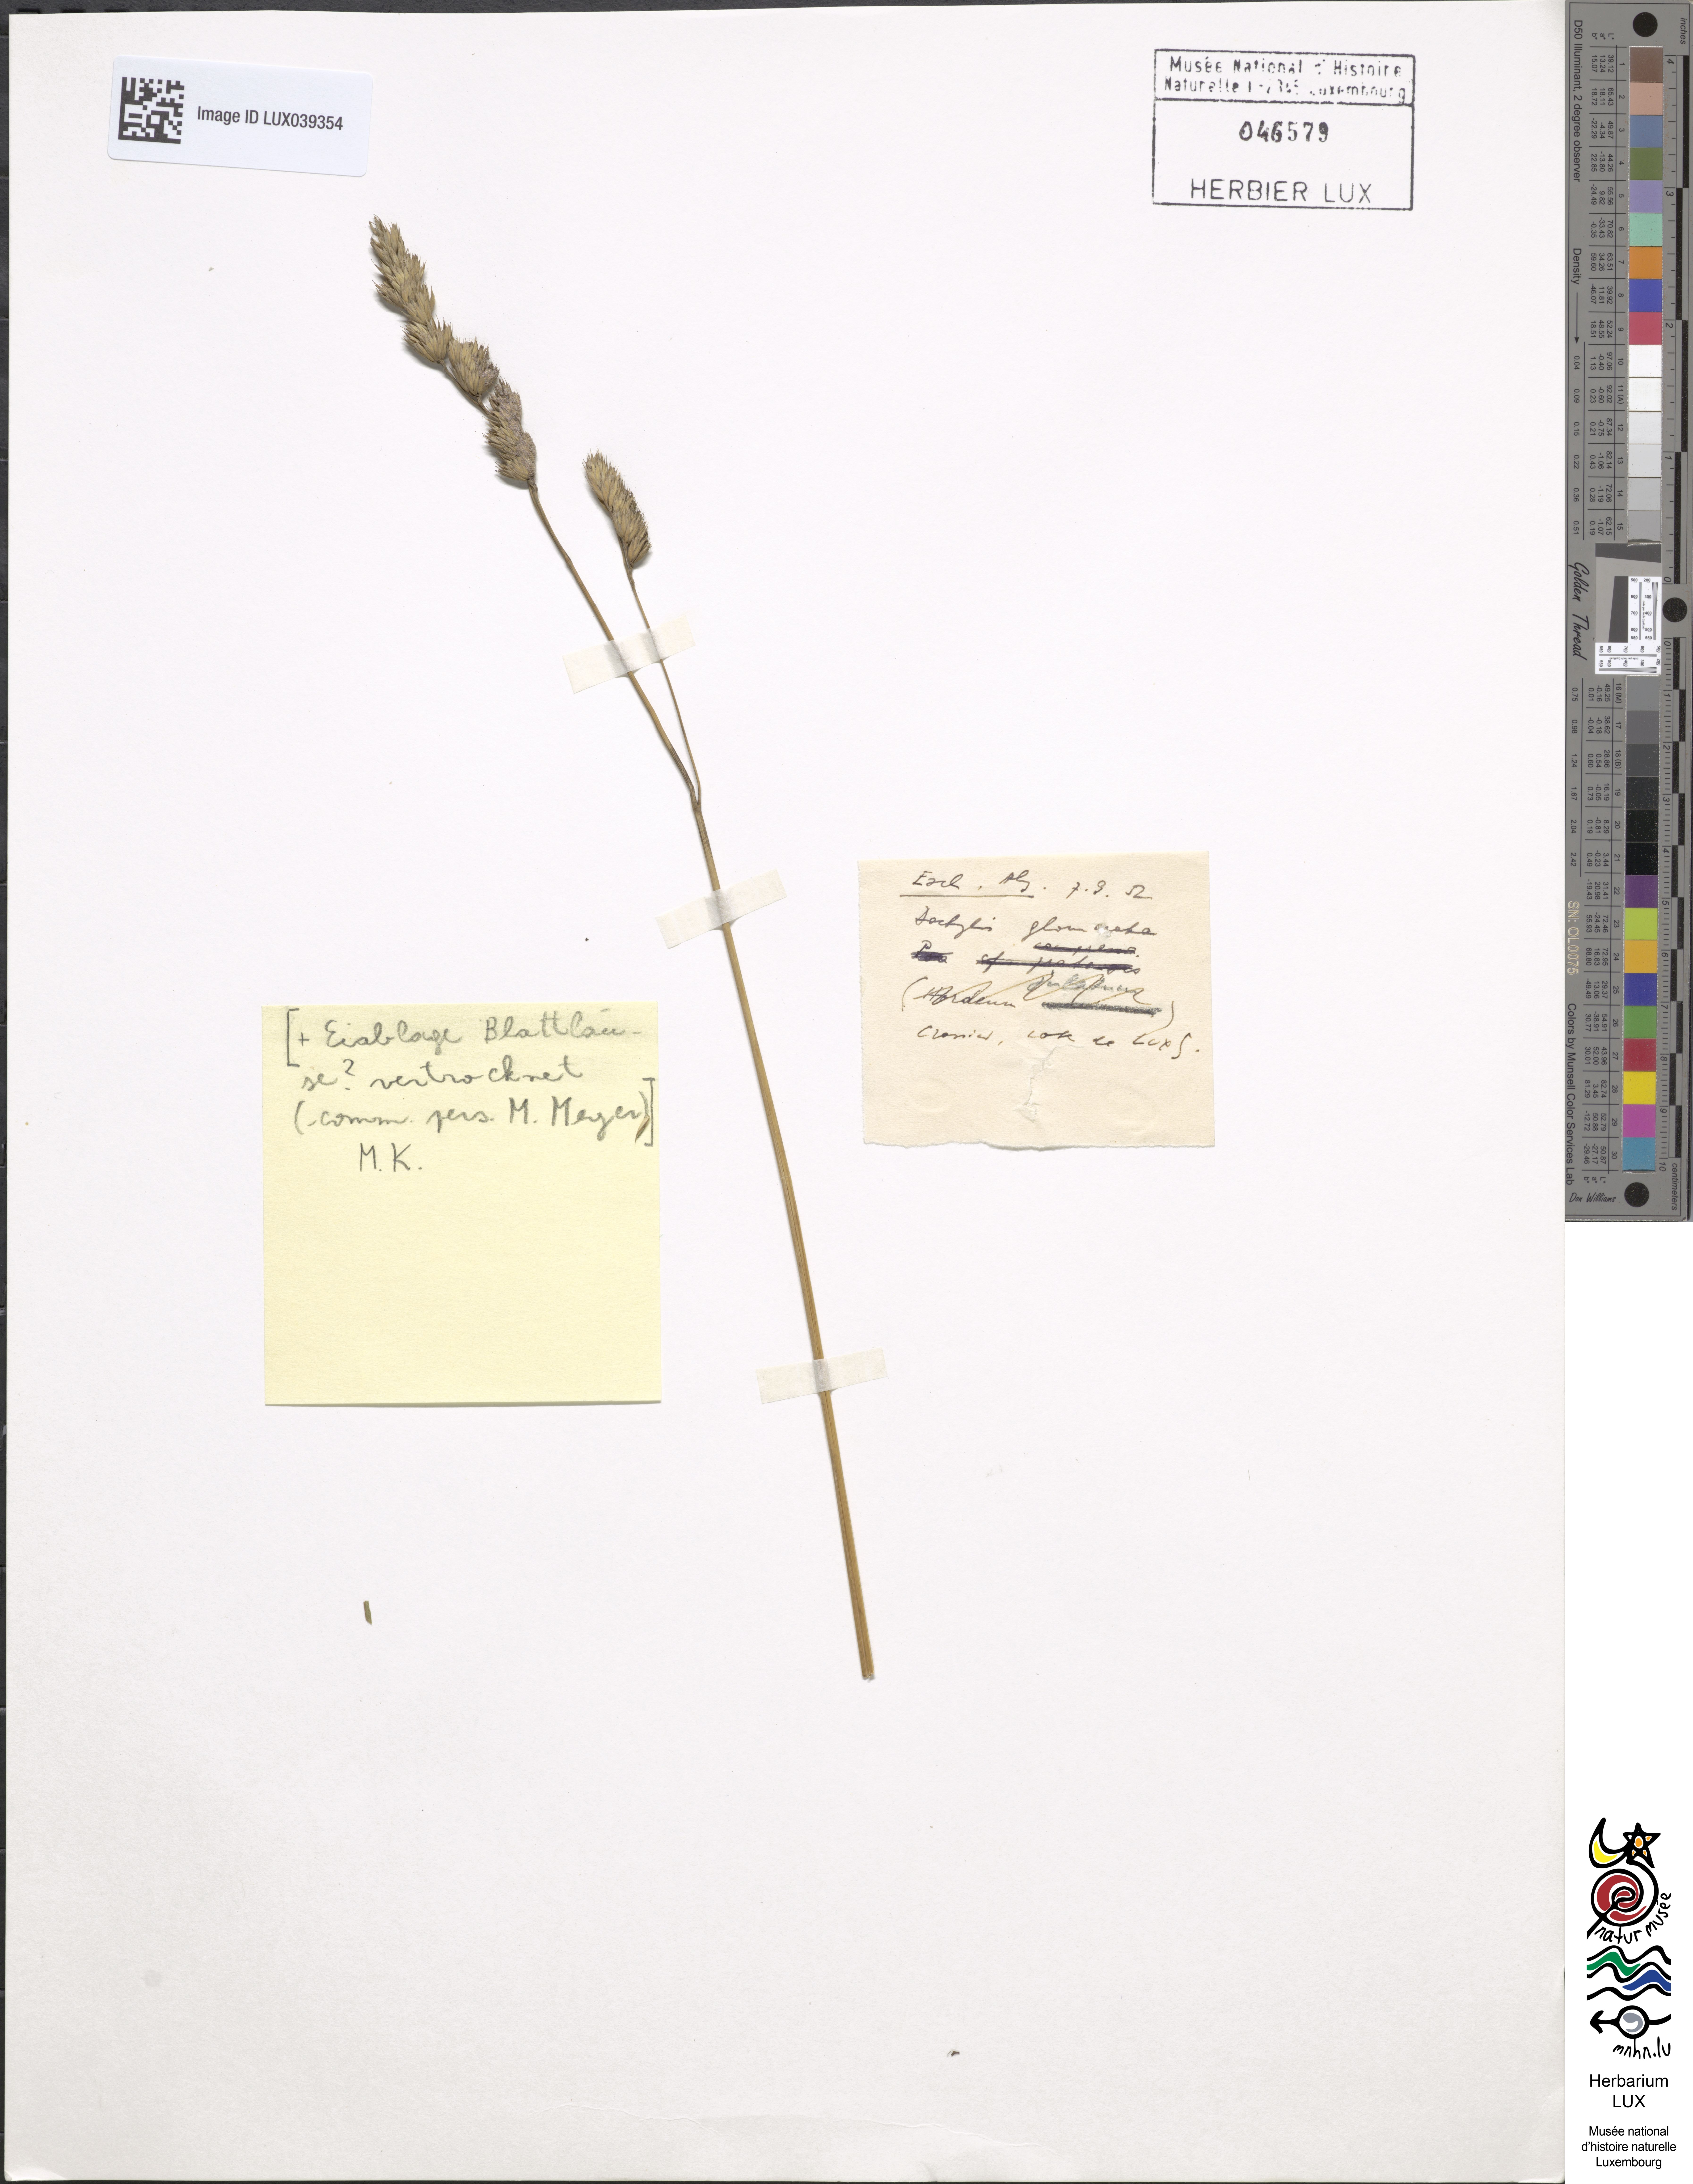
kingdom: Plantae
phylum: Tracheophyta
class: Liliopsida
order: Poales
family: Poaceae
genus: Dactylis
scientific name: Dactylis glomerata
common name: Orchardgrass
